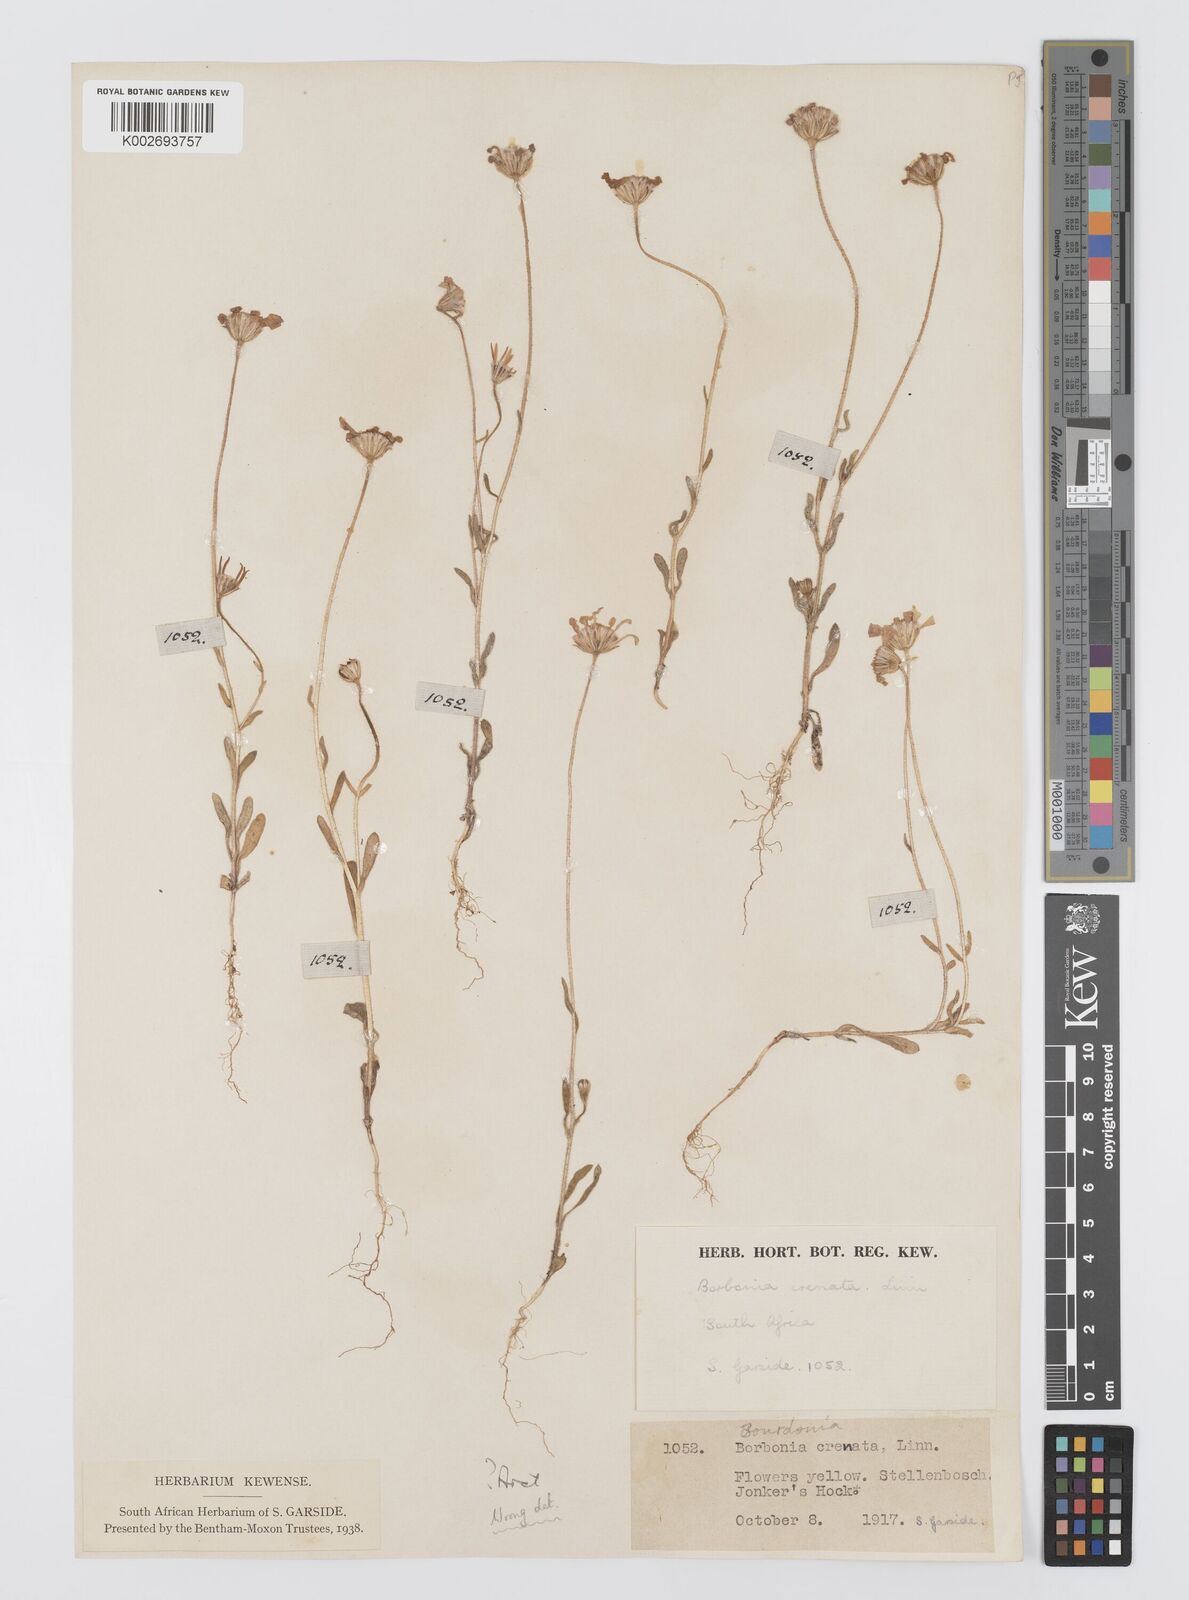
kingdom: Plantae
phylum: Tracheophyta
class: Magnoliopsida
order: Asterales
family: Asteraceae
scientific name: Asteraceae
